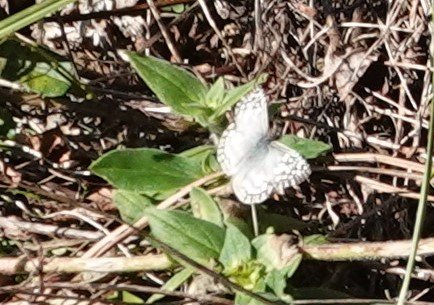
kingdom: Animalia
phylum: Arthropoda
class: Insecta
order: Lepidoptera
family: Hesperiidae
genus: Pyrgus
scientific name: Pyrgus oileus
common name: Tropical Checkered-Skipper
